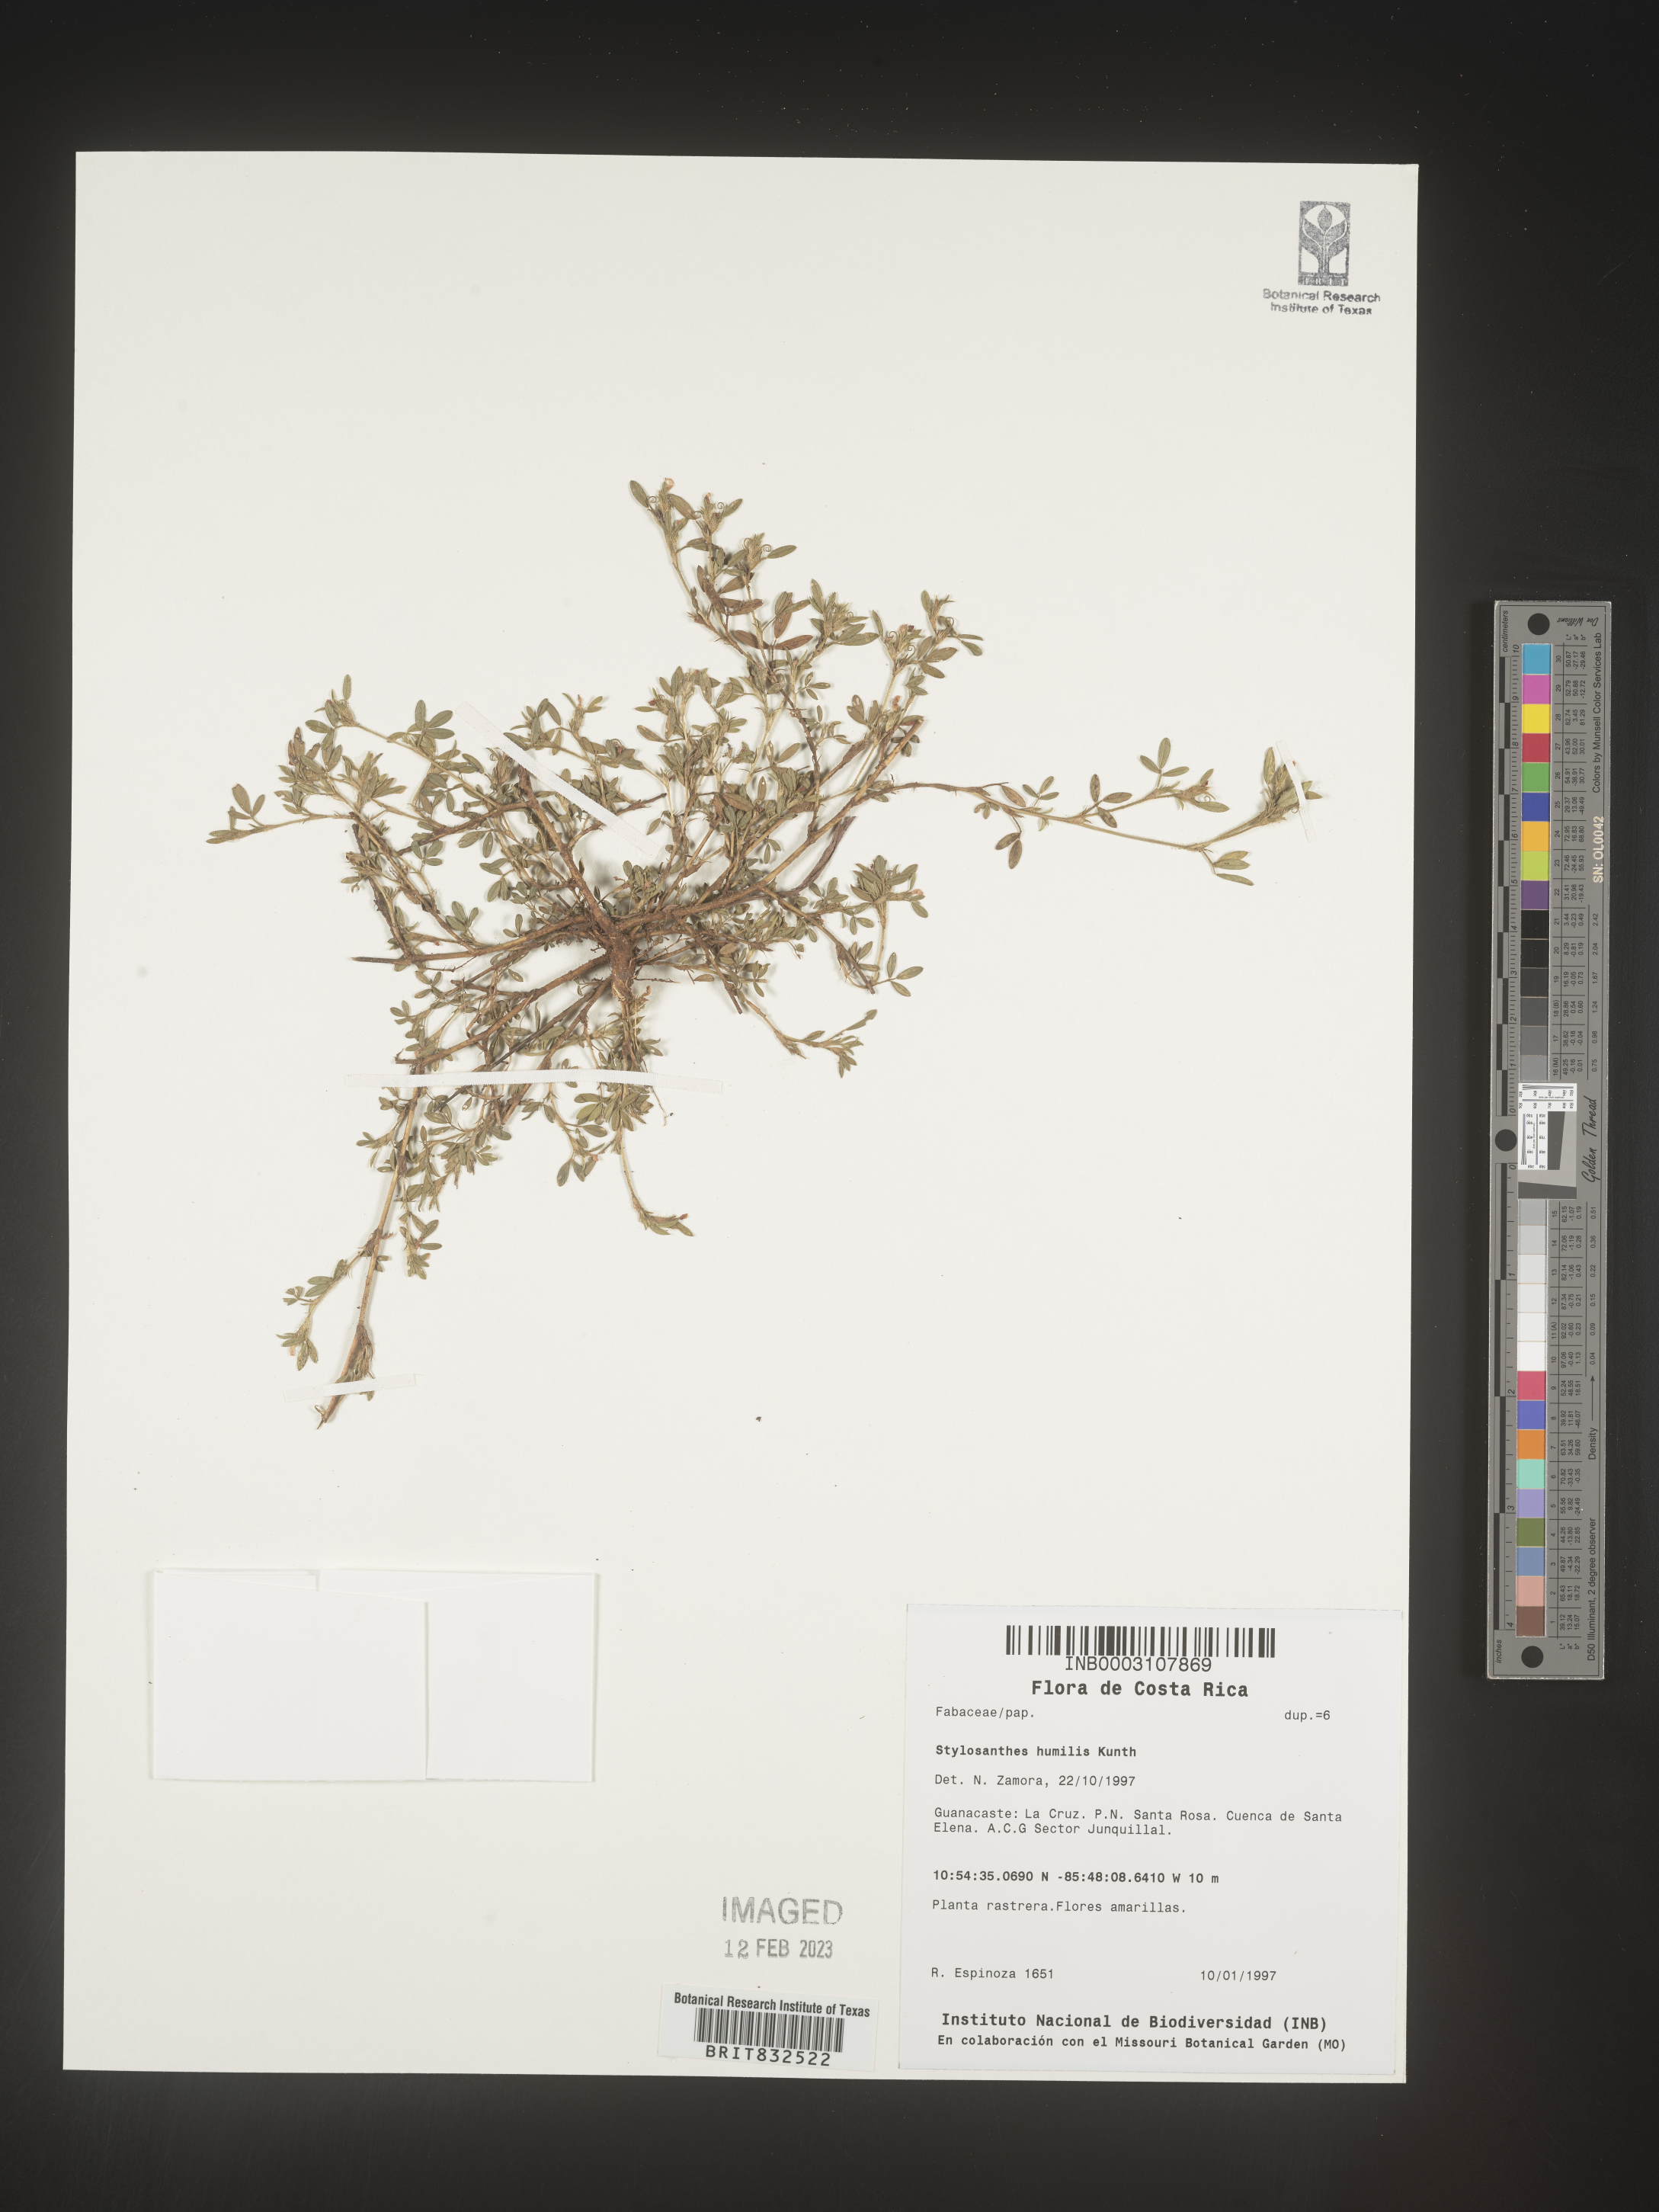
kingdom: Plantae
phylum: Tracheophyta
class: Magnoliopsida
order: Fabales
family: Fabaceae
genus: Stylosanthes
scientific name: Stylosanthes
